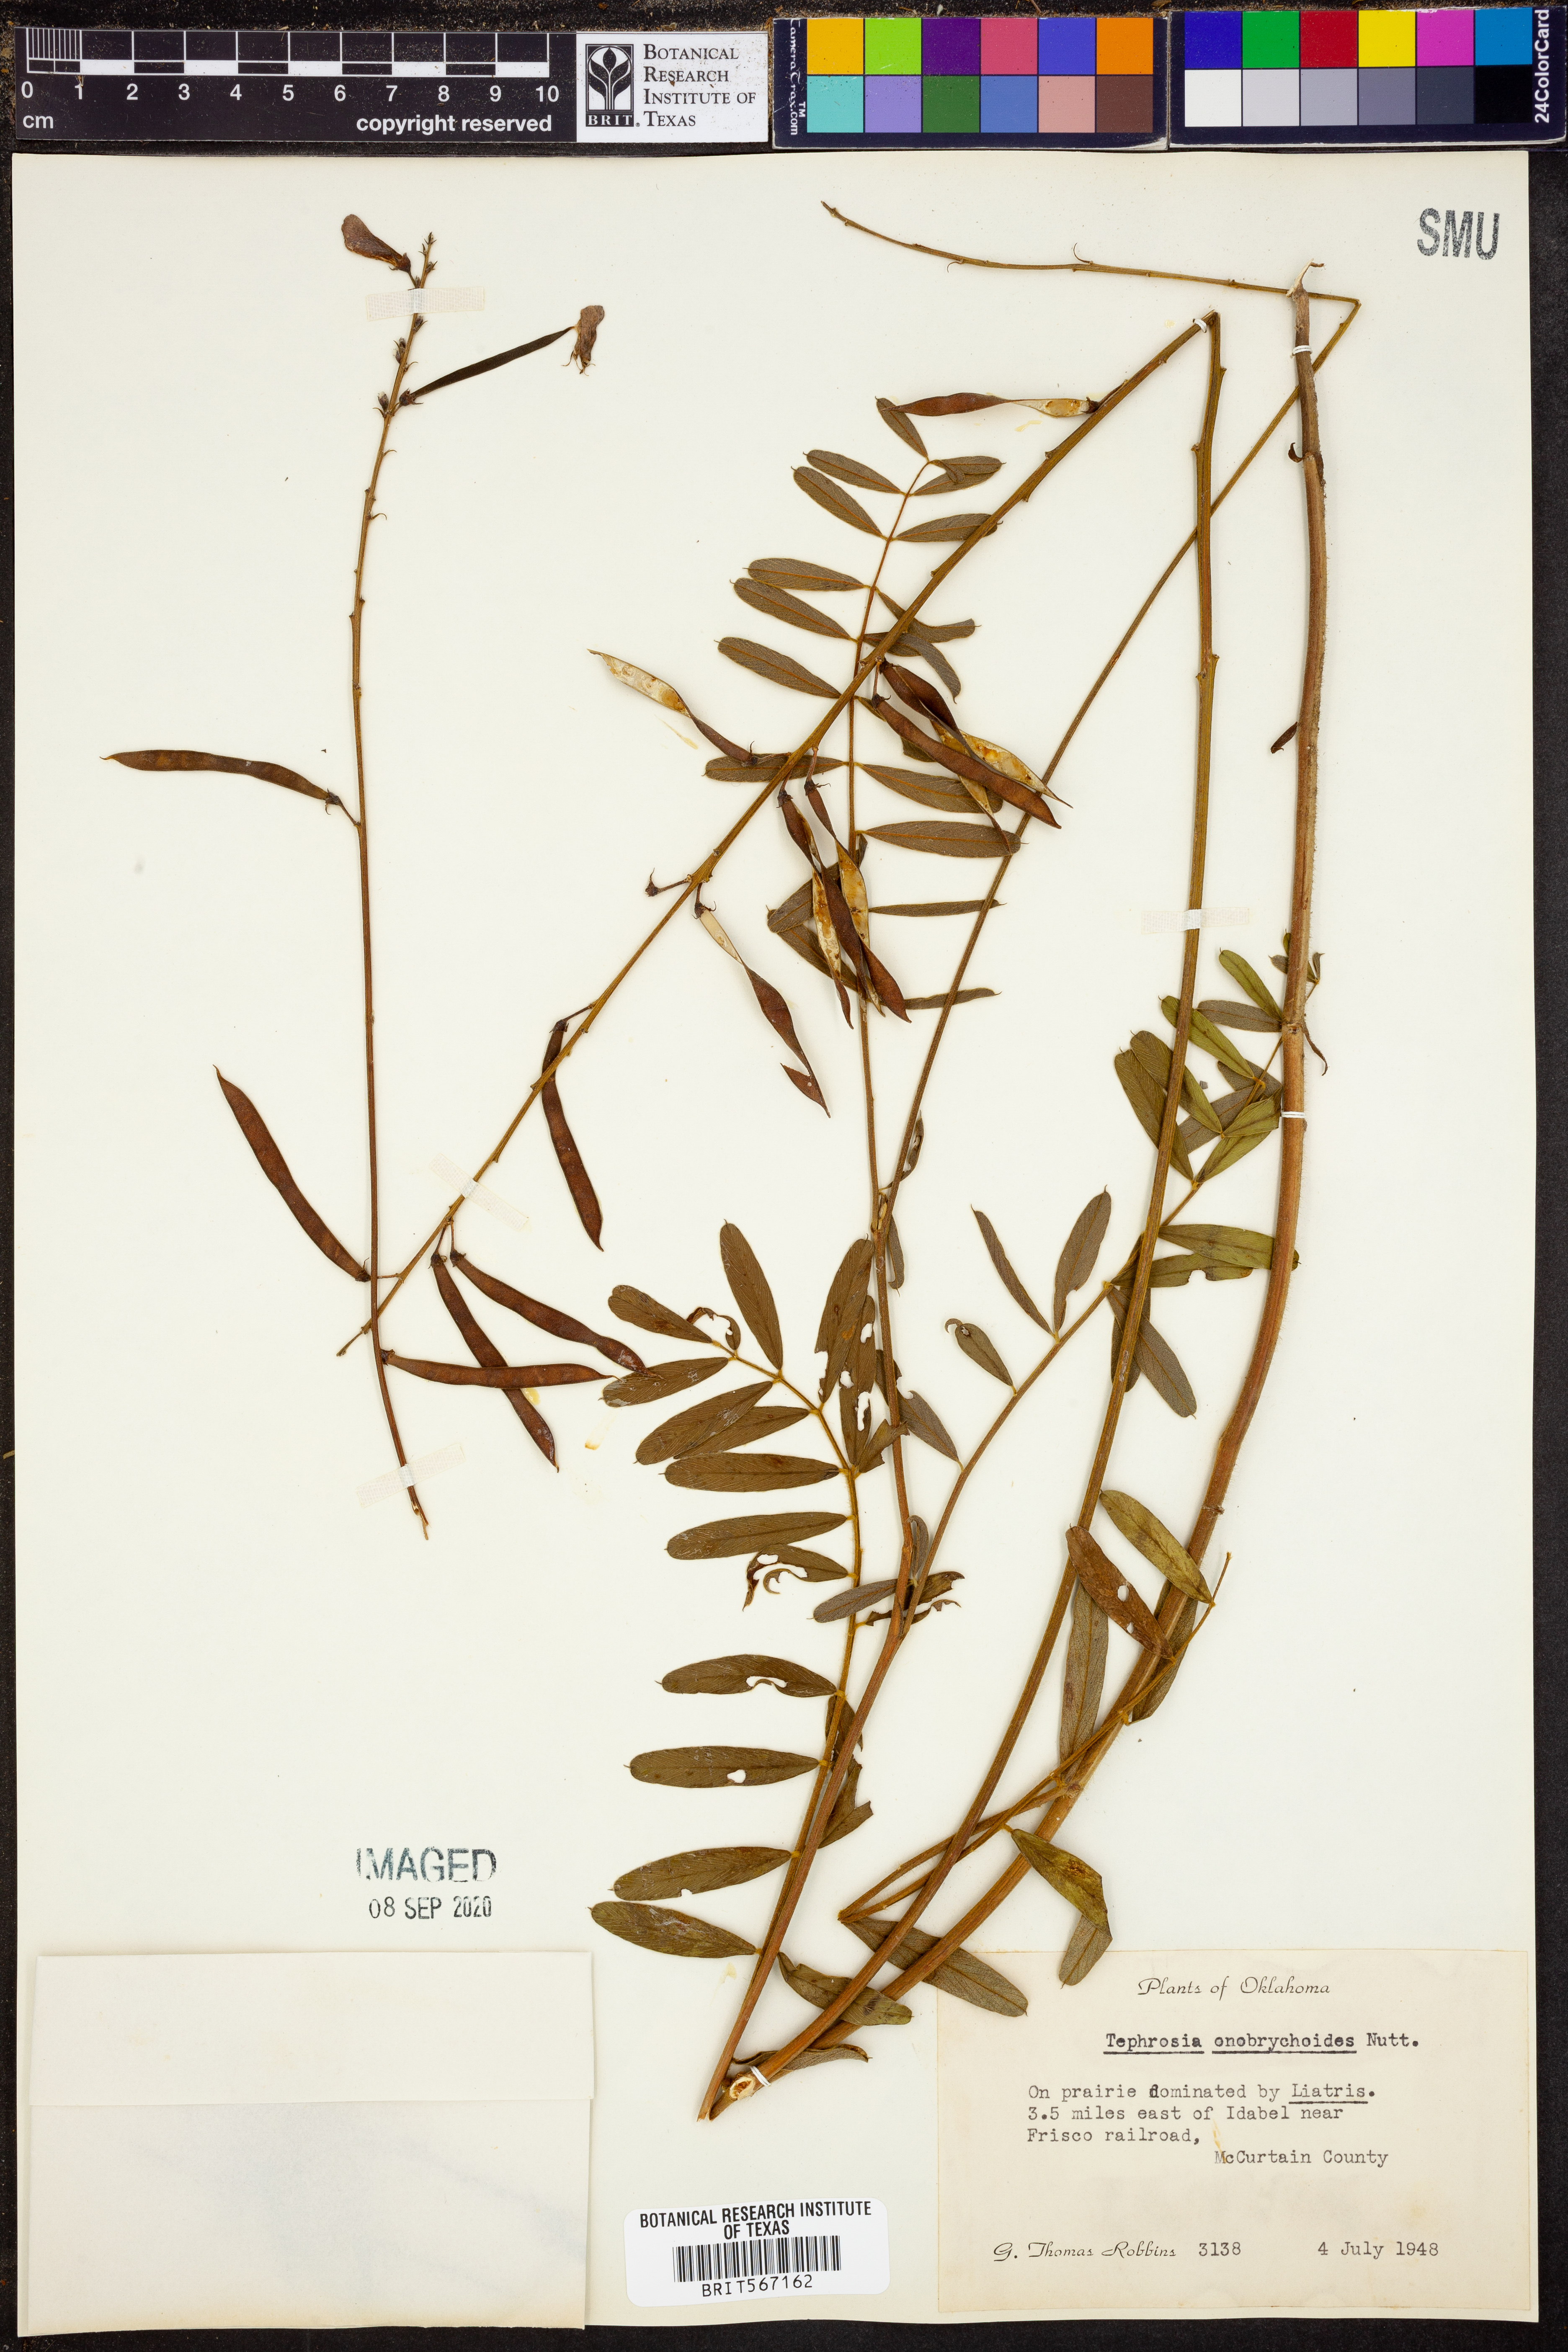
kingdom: Plantae
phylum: Tracheophyta
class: Magnoliopsida
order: Fabales
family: Fabaceae
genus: Tephrosia
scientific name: Tephrosia onobrychoides
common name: Multi-bloom hoary-pea
